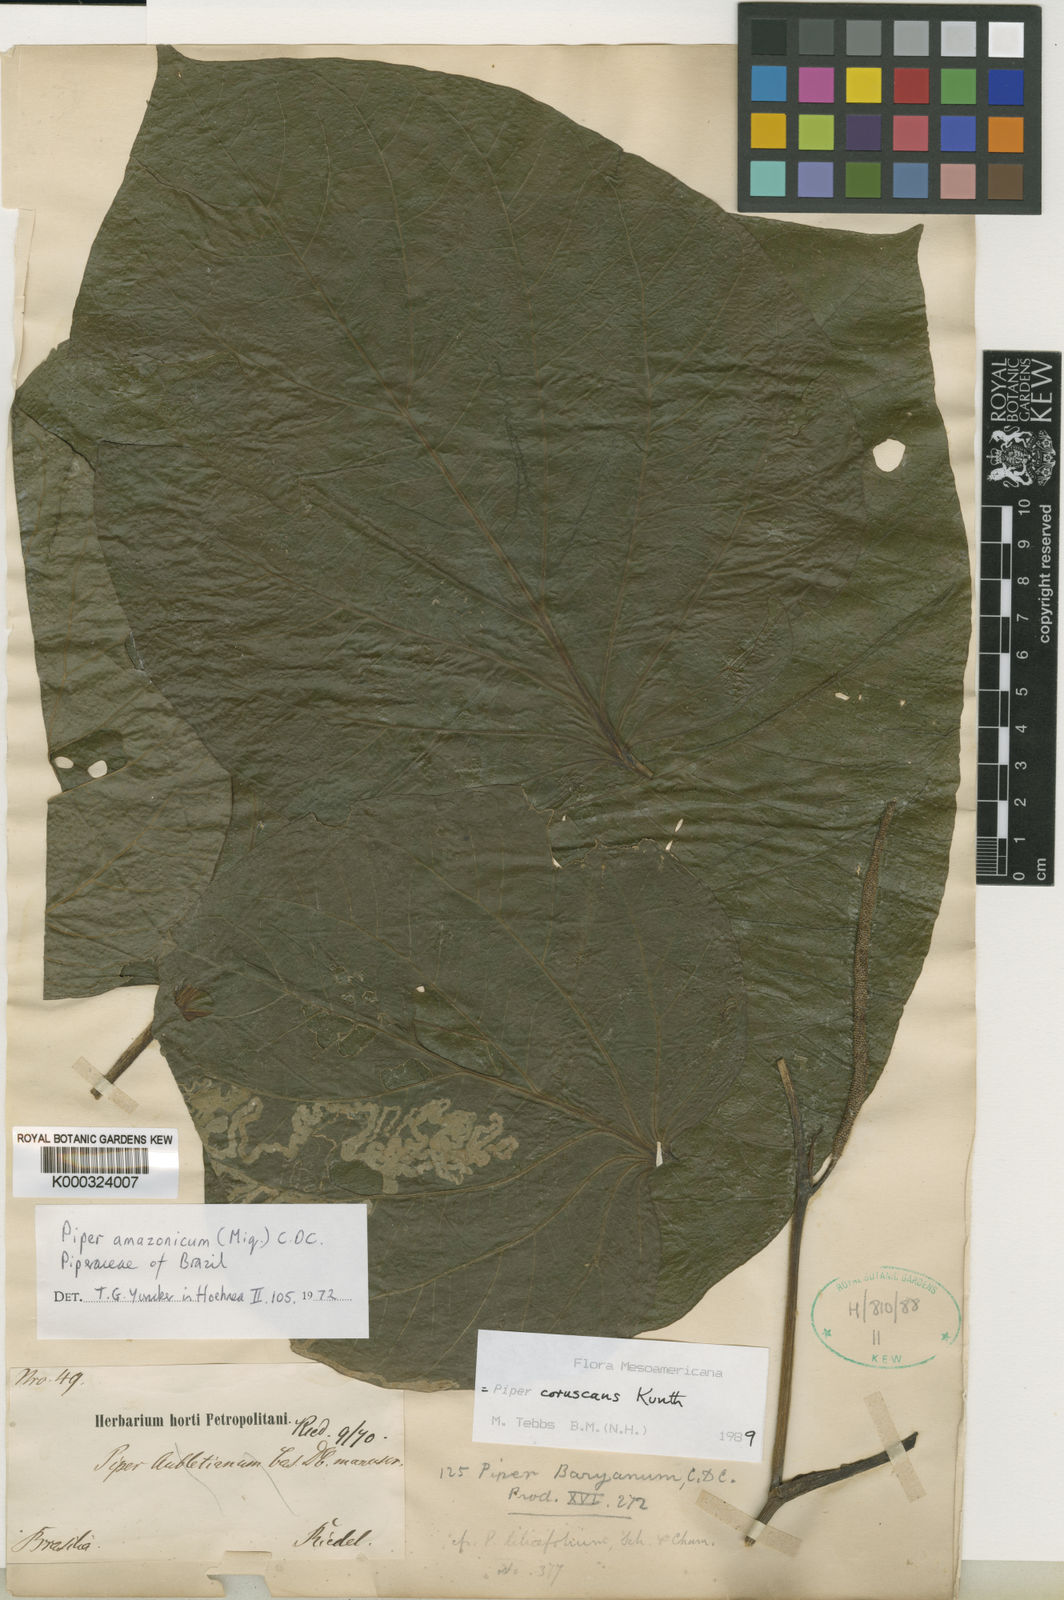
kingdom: Plantae
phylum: Tracheophyta
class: Magnoliopsida
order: Piperales
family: Piperaceae
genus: Piper
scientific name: Piper
